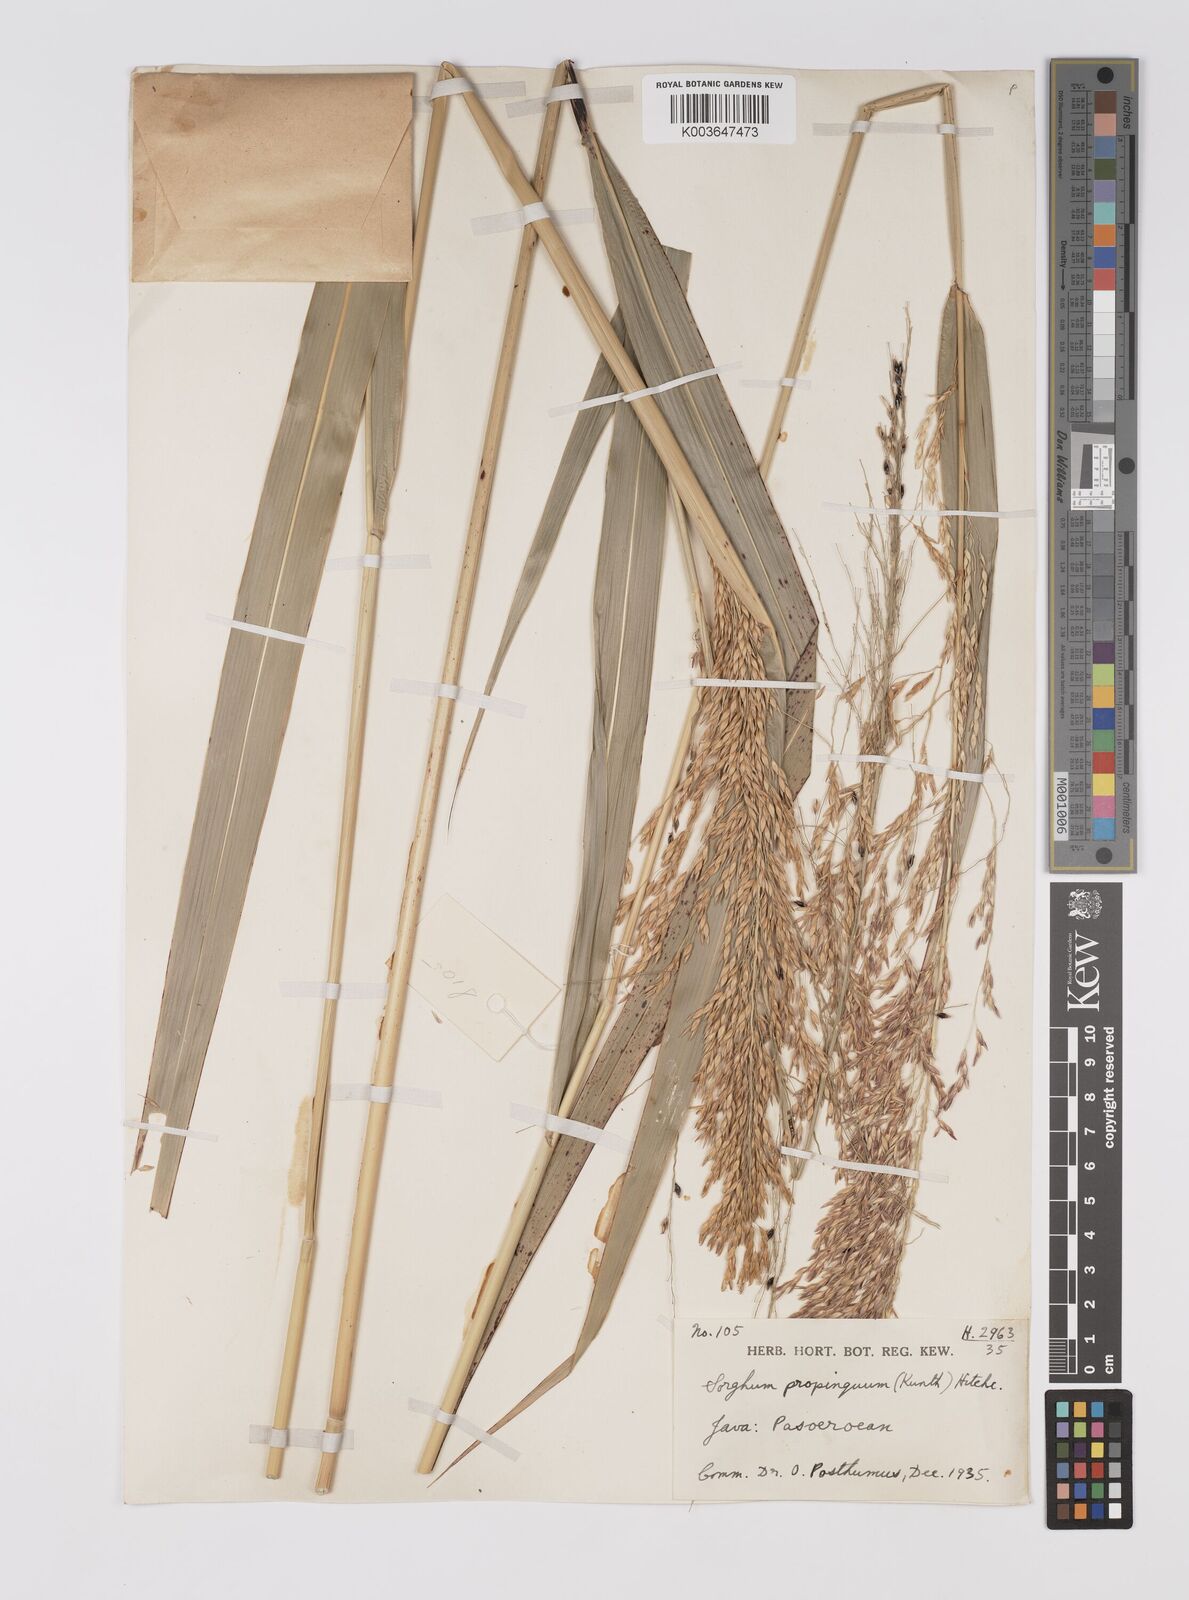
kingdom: Plantae
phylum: Tracheophyta
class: Liliopsida
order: Poales
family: Poaceae
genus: Sorghum
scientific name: Sorghum propinquum
